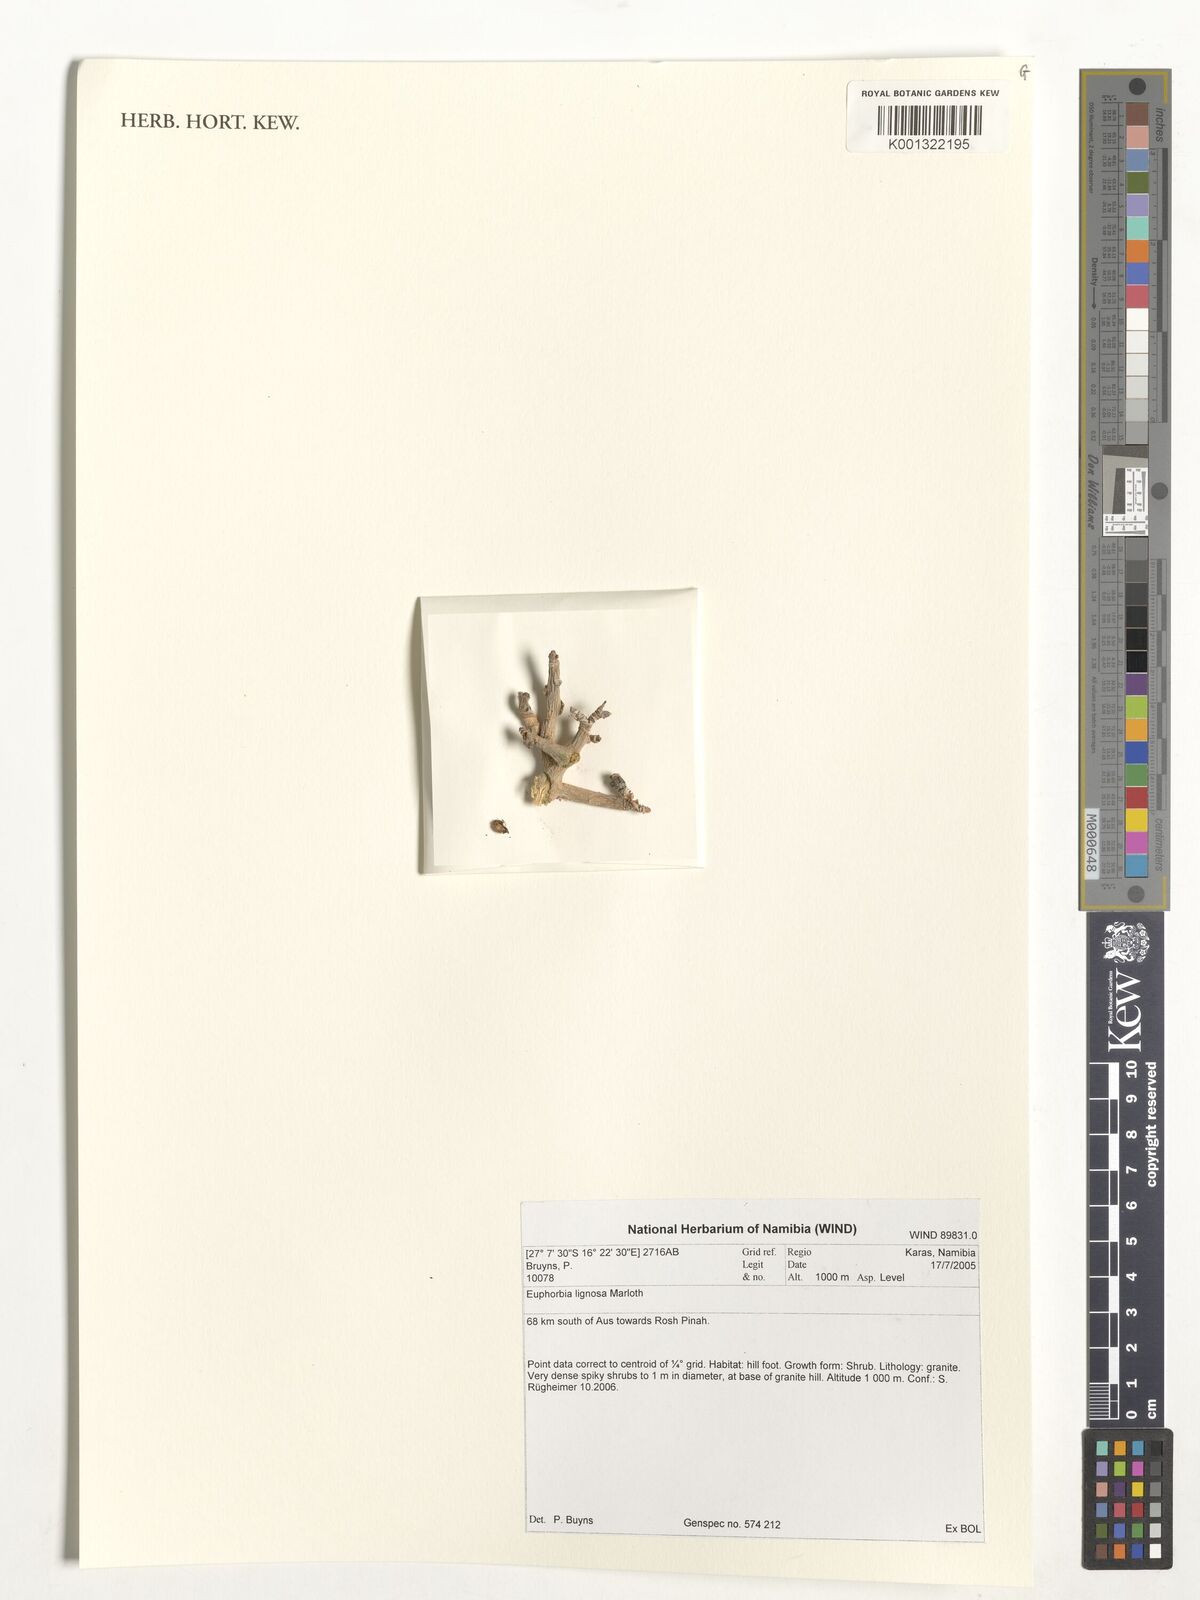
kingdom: Plantae
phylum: Tracheophyta
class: Magnoliopsida
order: Malpighiales
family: Euphorbiaceae
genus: Euphorbia
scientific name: Euphorbia lignosa
